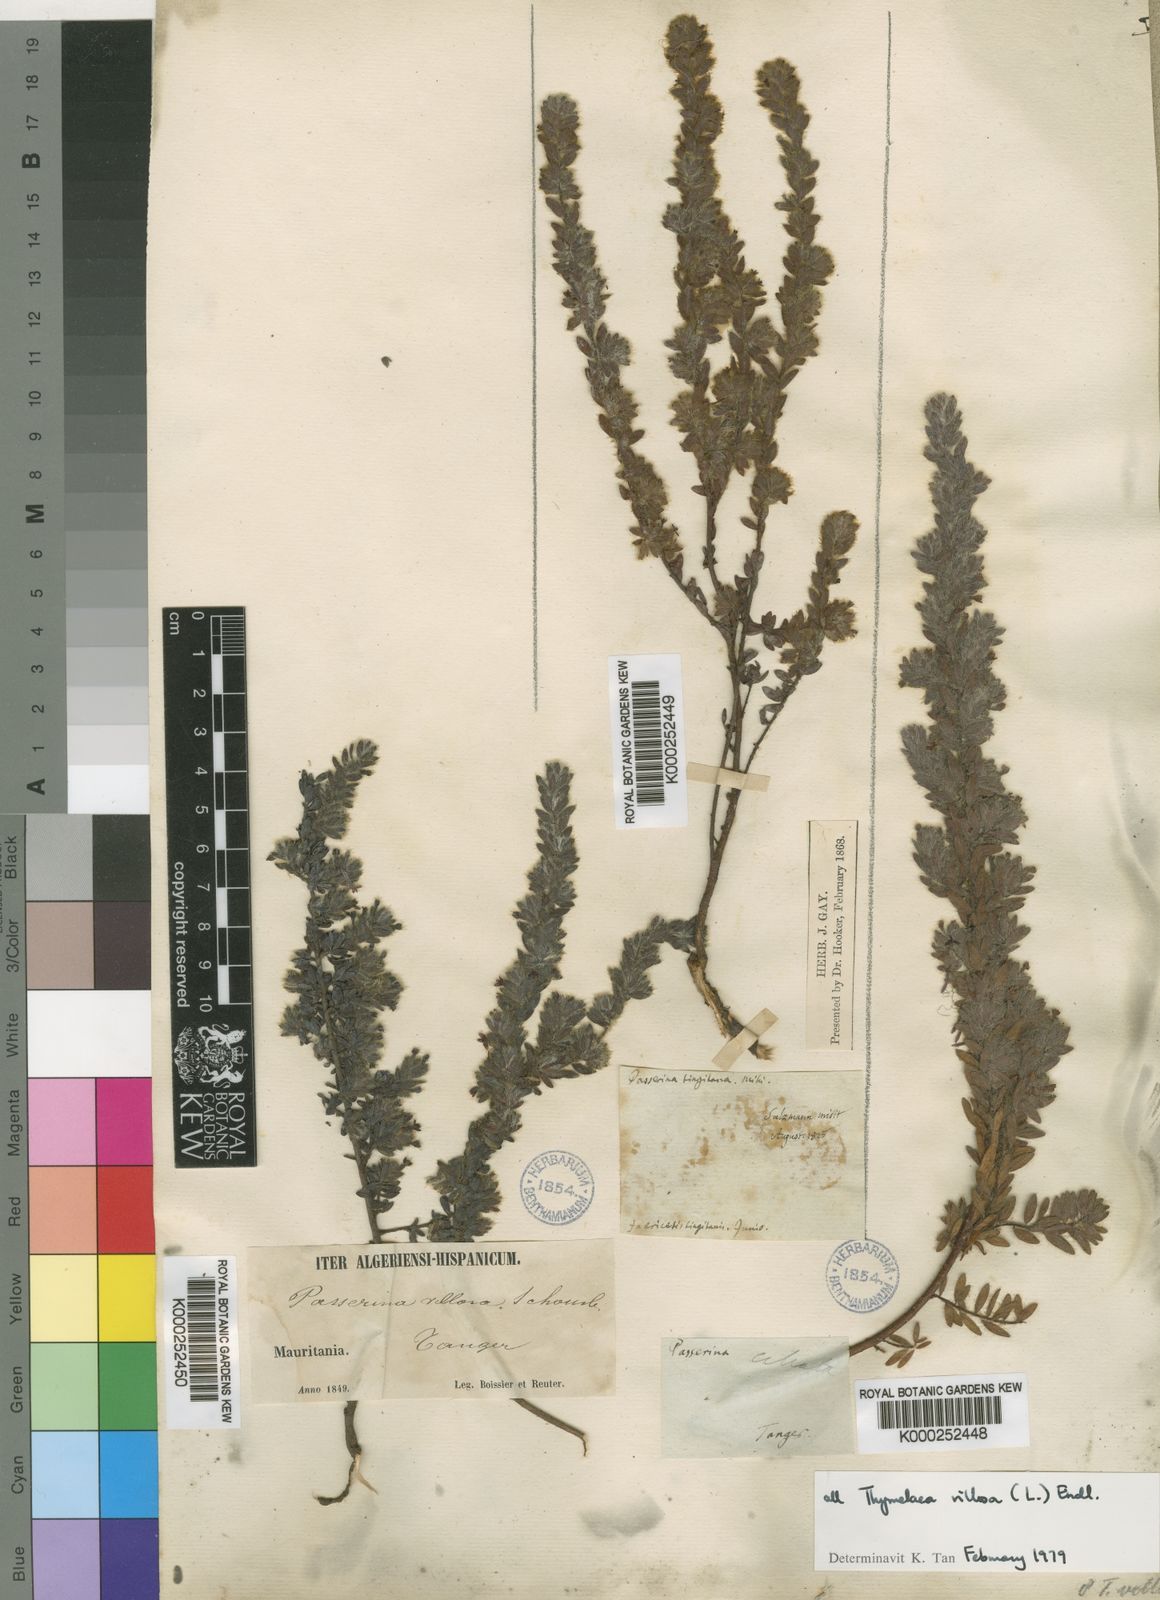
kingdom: Plantae
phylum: Tracheophyta
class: Magnoliopsida
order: Malvales
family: Thymelaeaceae
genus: Thymelaea
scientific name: Thymelaea villosa
